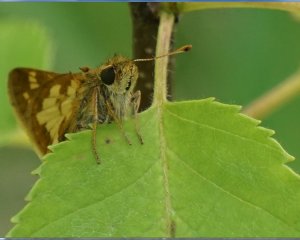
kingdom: Animalia
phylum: Arthropoda
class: Insecta
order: Lepidoptera
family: Hesperiidae
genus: Polites
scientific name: Polites coras
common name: Peck's Skipper
